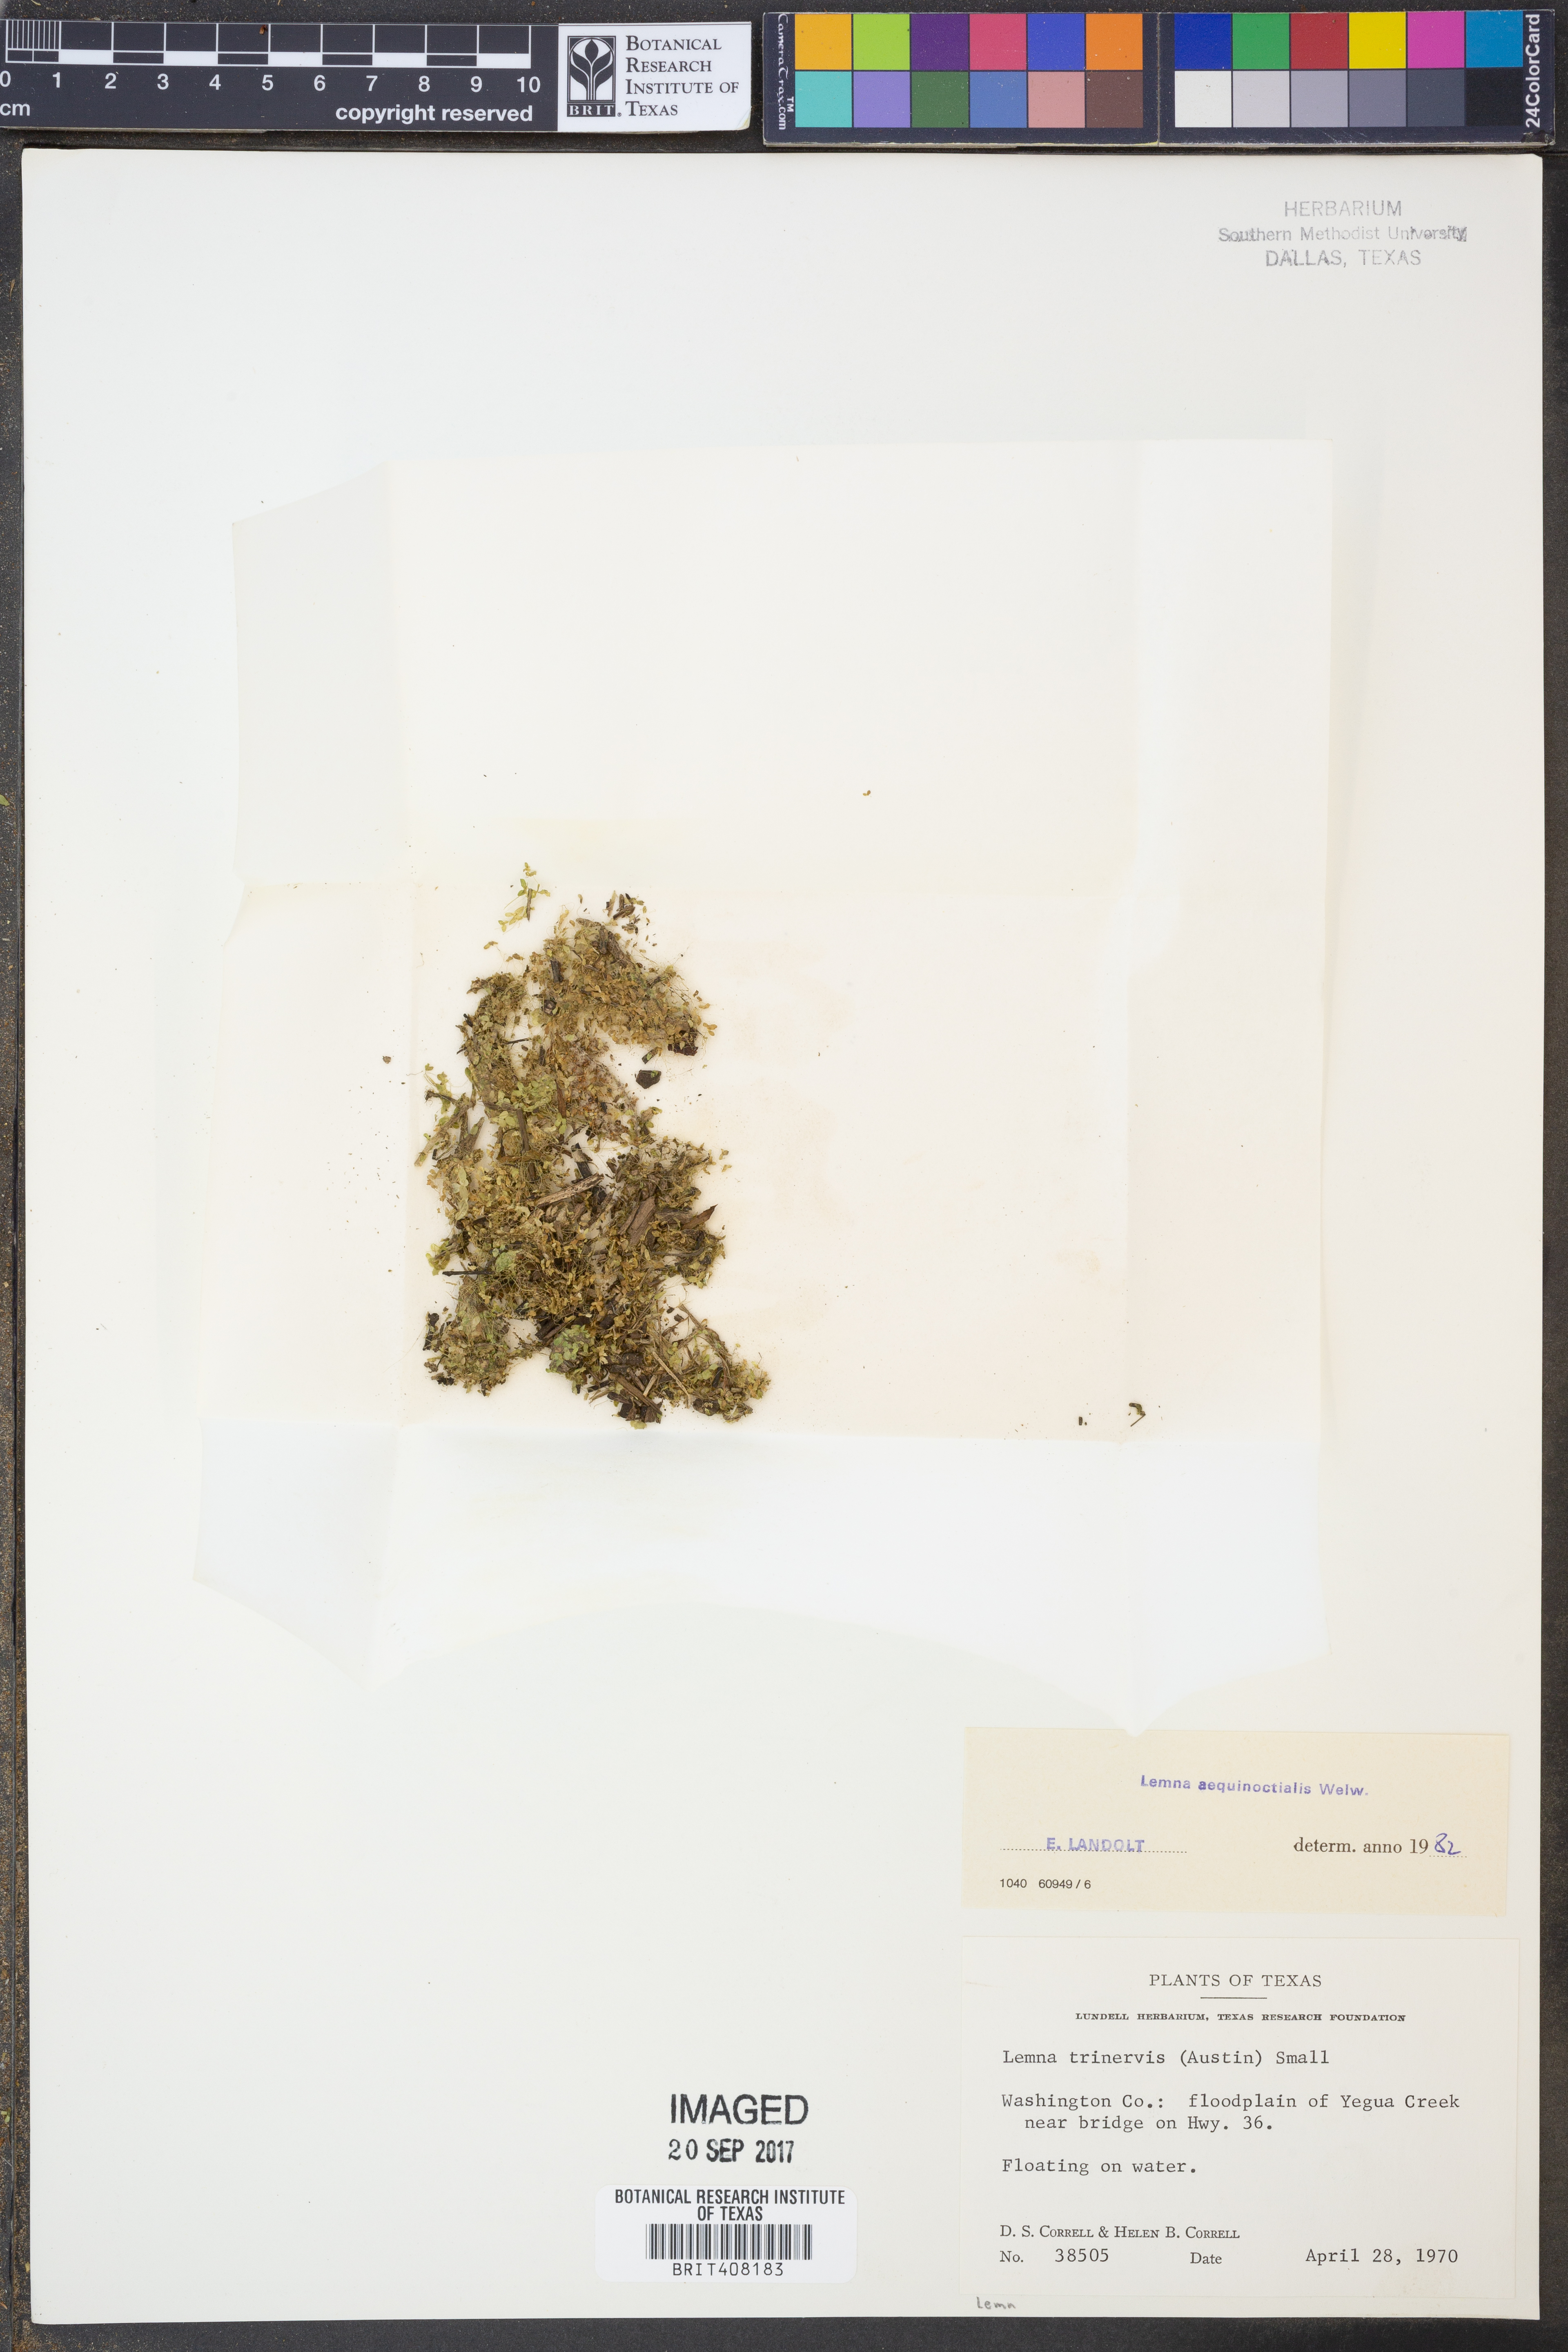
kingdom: Plantae
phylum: Tracheophyta
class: Liliopsida
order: Alismatales
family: Araceae
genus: Lemna
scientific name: Lemna aequinoctialis
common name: Duckweed
